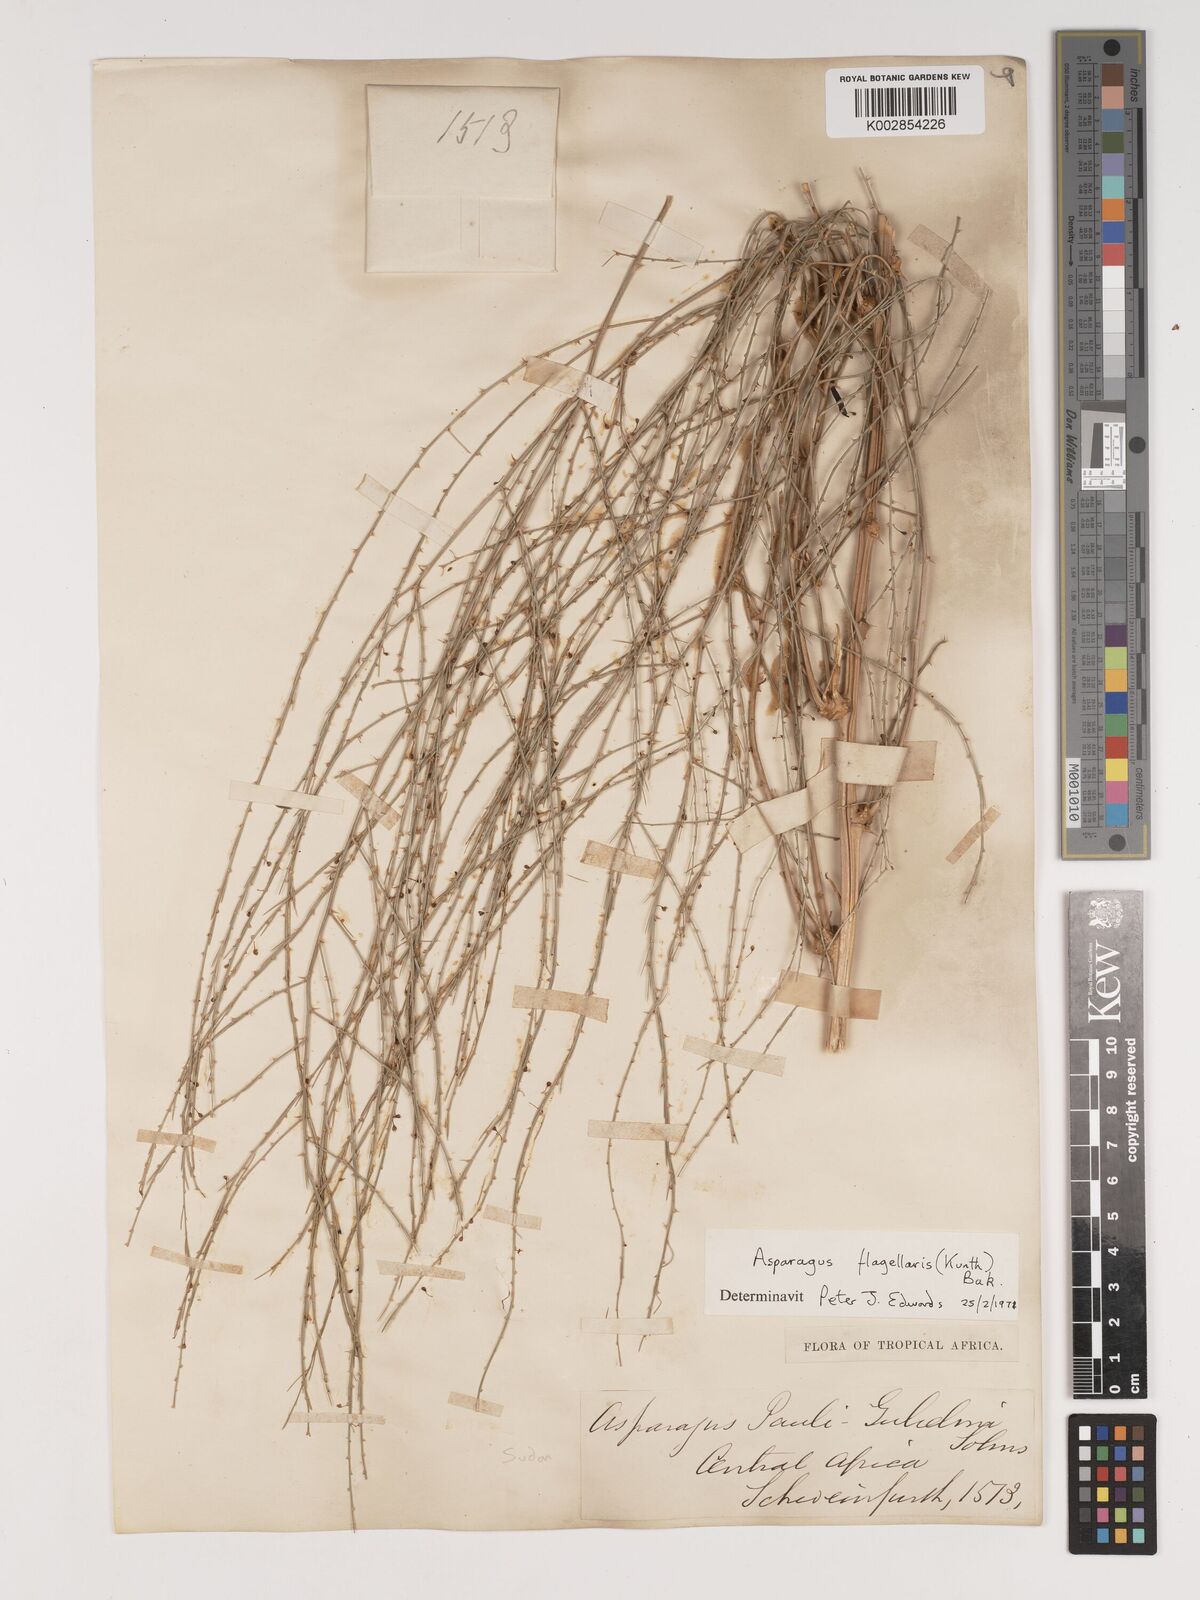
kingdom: Plantae
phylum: Tracheophyta
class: Liliopsida
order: Asparagales
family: Asparagaceae
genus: Asparagus
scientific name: Asparagus flagellaris
